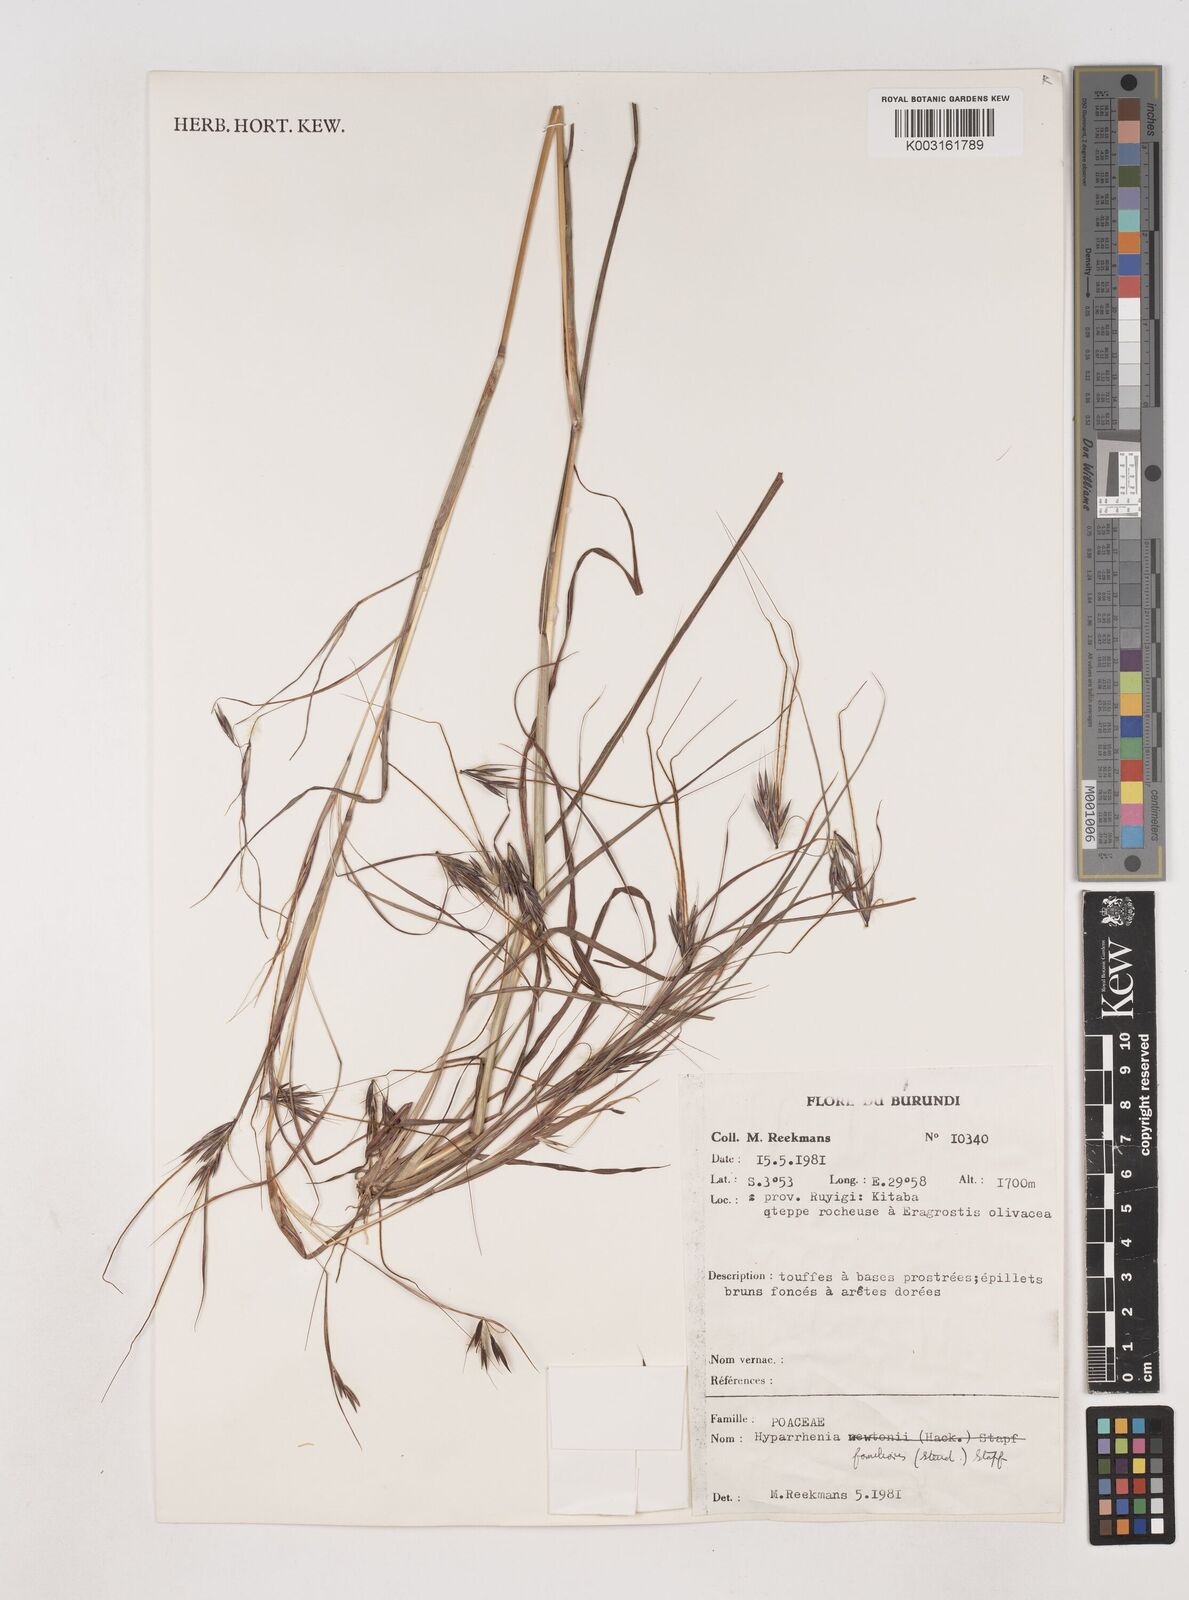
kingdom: Plantae
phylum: Tracheophyta
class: Liliopsida
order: Poales
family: Poaceae
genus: Hyparrhenia
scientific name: Hyparrhenia familiaris
